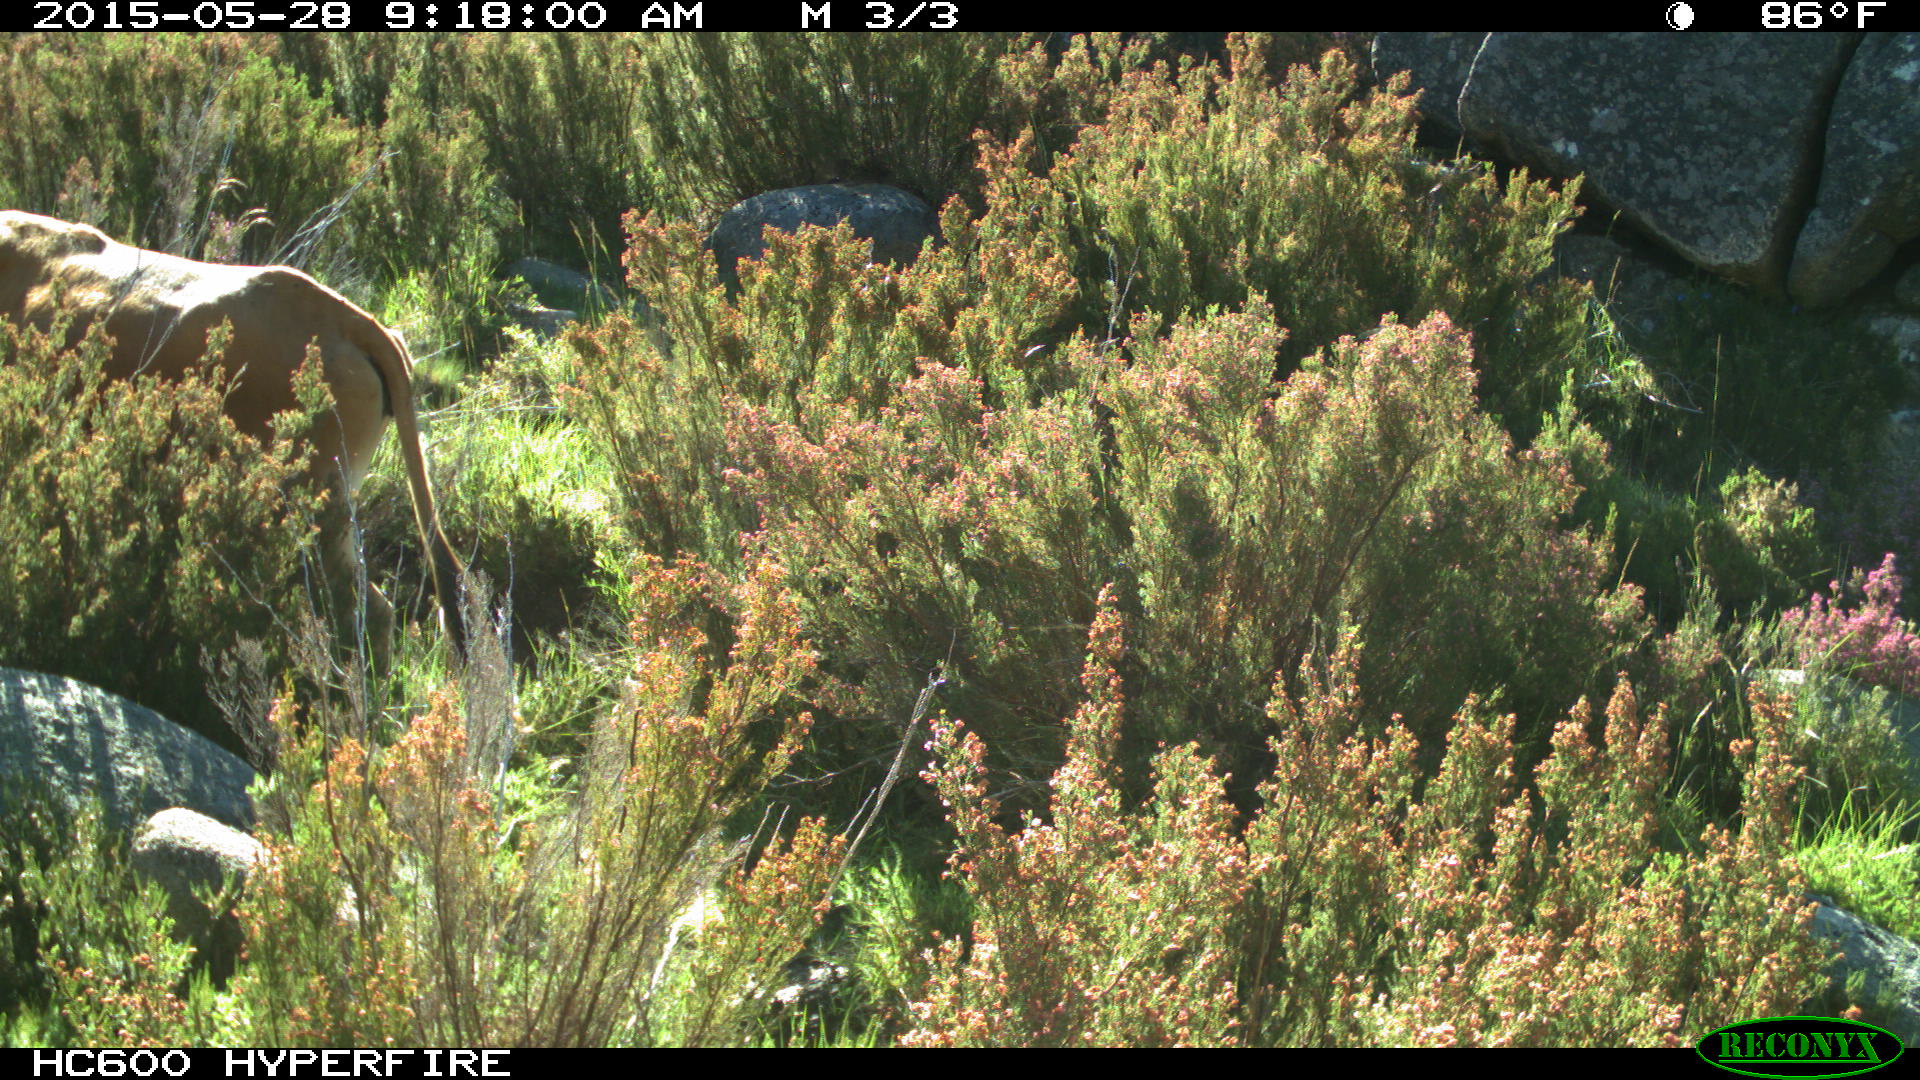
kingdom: Animalia
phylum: Chordata
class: Mammalia
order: Artiodactyla
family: Bovidae
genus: Bos
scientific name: Bos taurus
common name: Domesticated cattle
